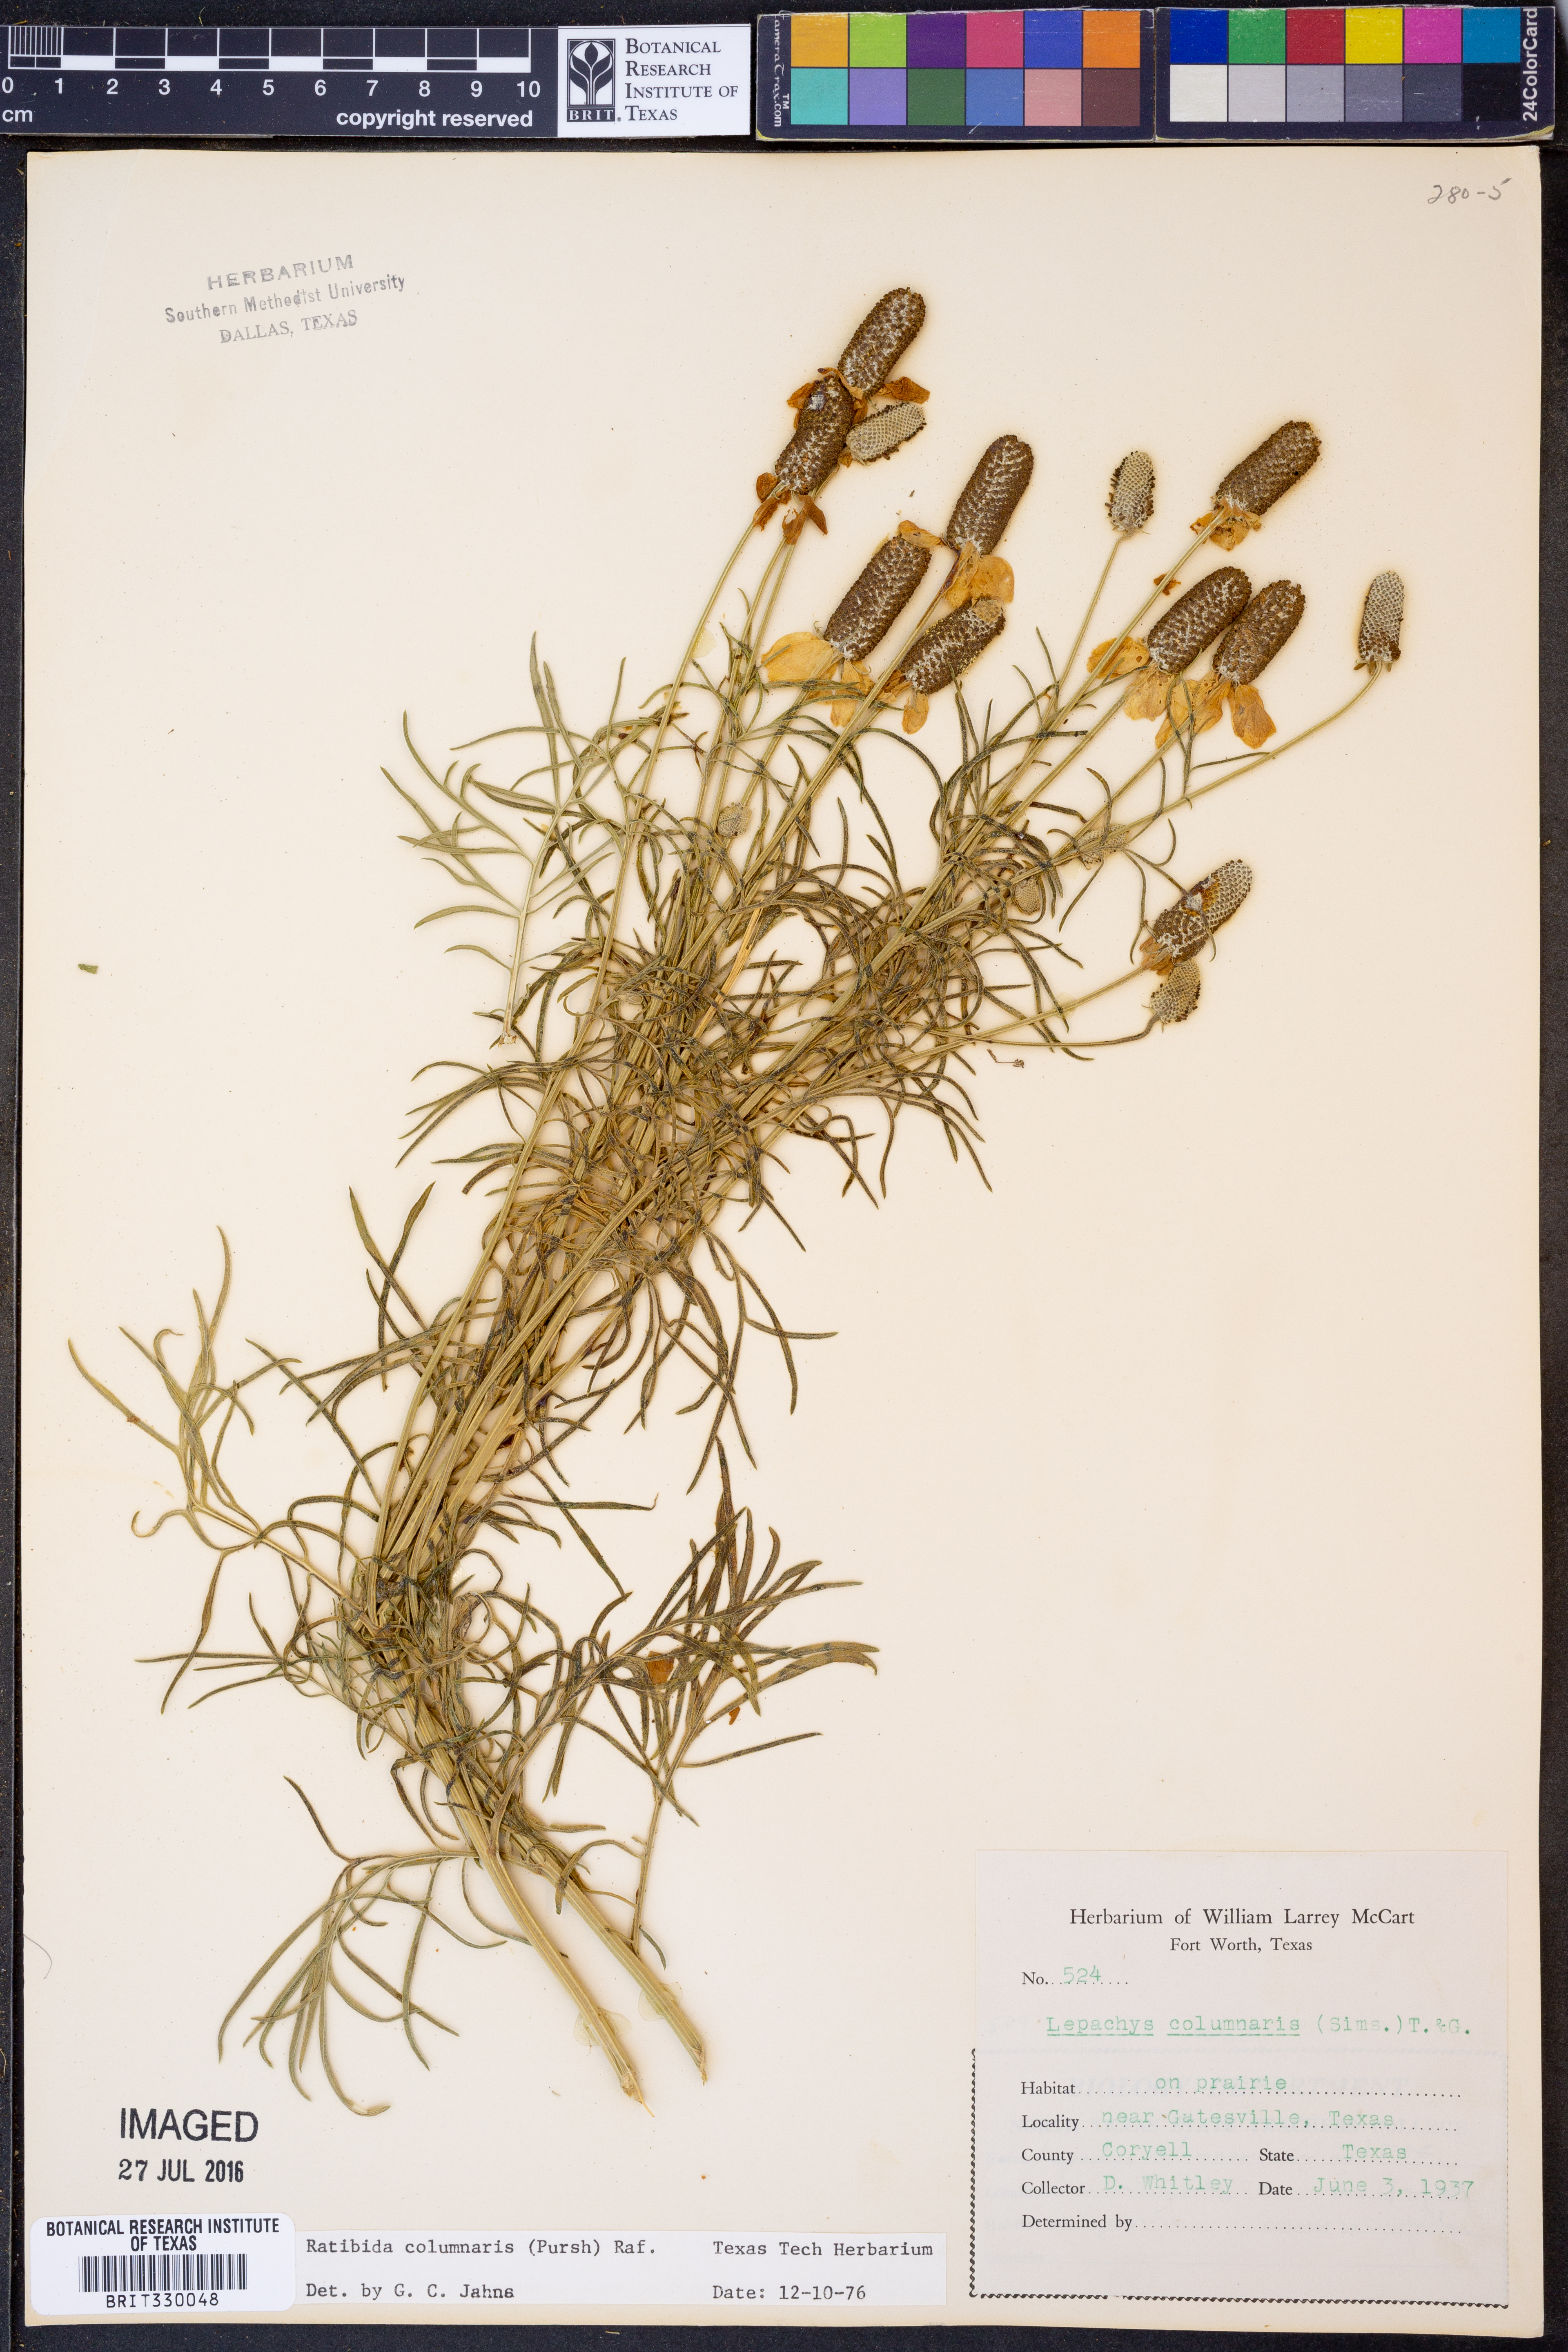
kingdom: Plantae
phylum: Tracheophyta
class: Magnoliopsida
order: Asterales
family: Asteraceae
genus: Ratibida
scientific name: Ratibida columnifera
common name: Prairie coneflower
